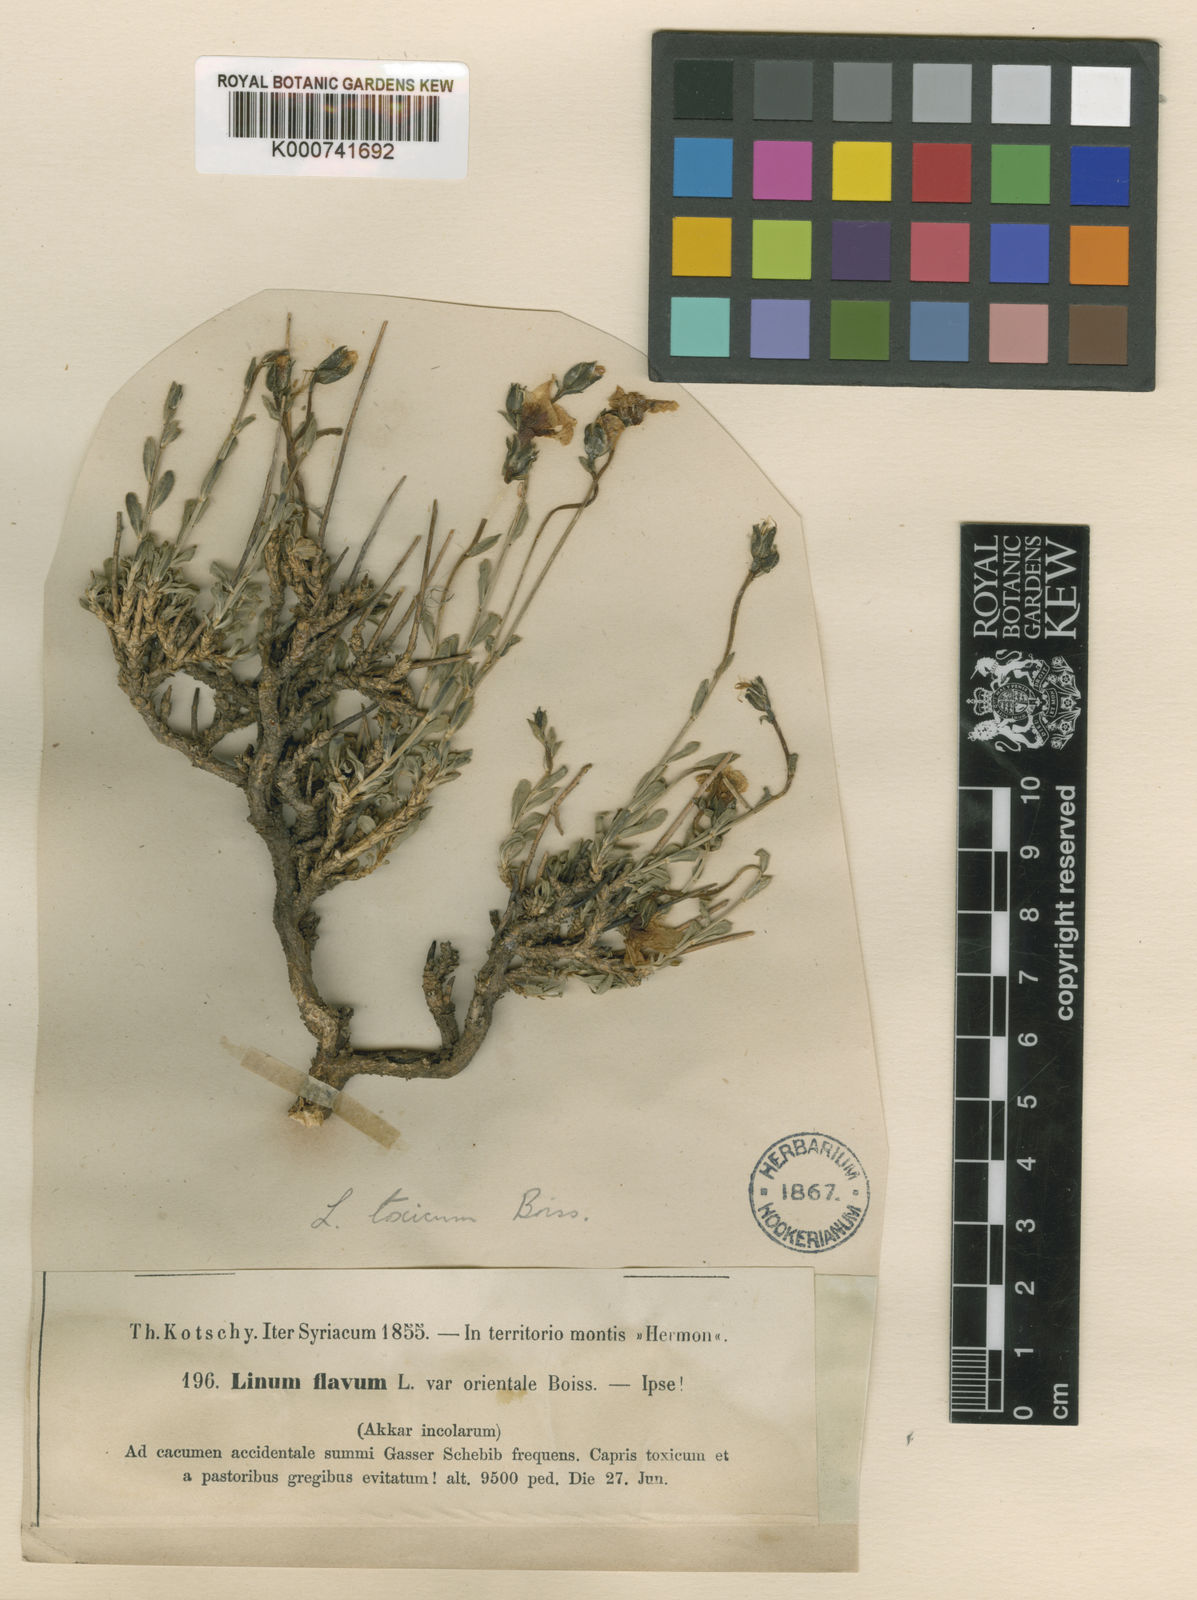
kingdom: Plantae
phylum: Tracheophyta
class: Magnoliopsida
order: Malpighiales
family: Linaceae
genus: Linum
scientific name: Linum flavum
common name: Yellow flax
